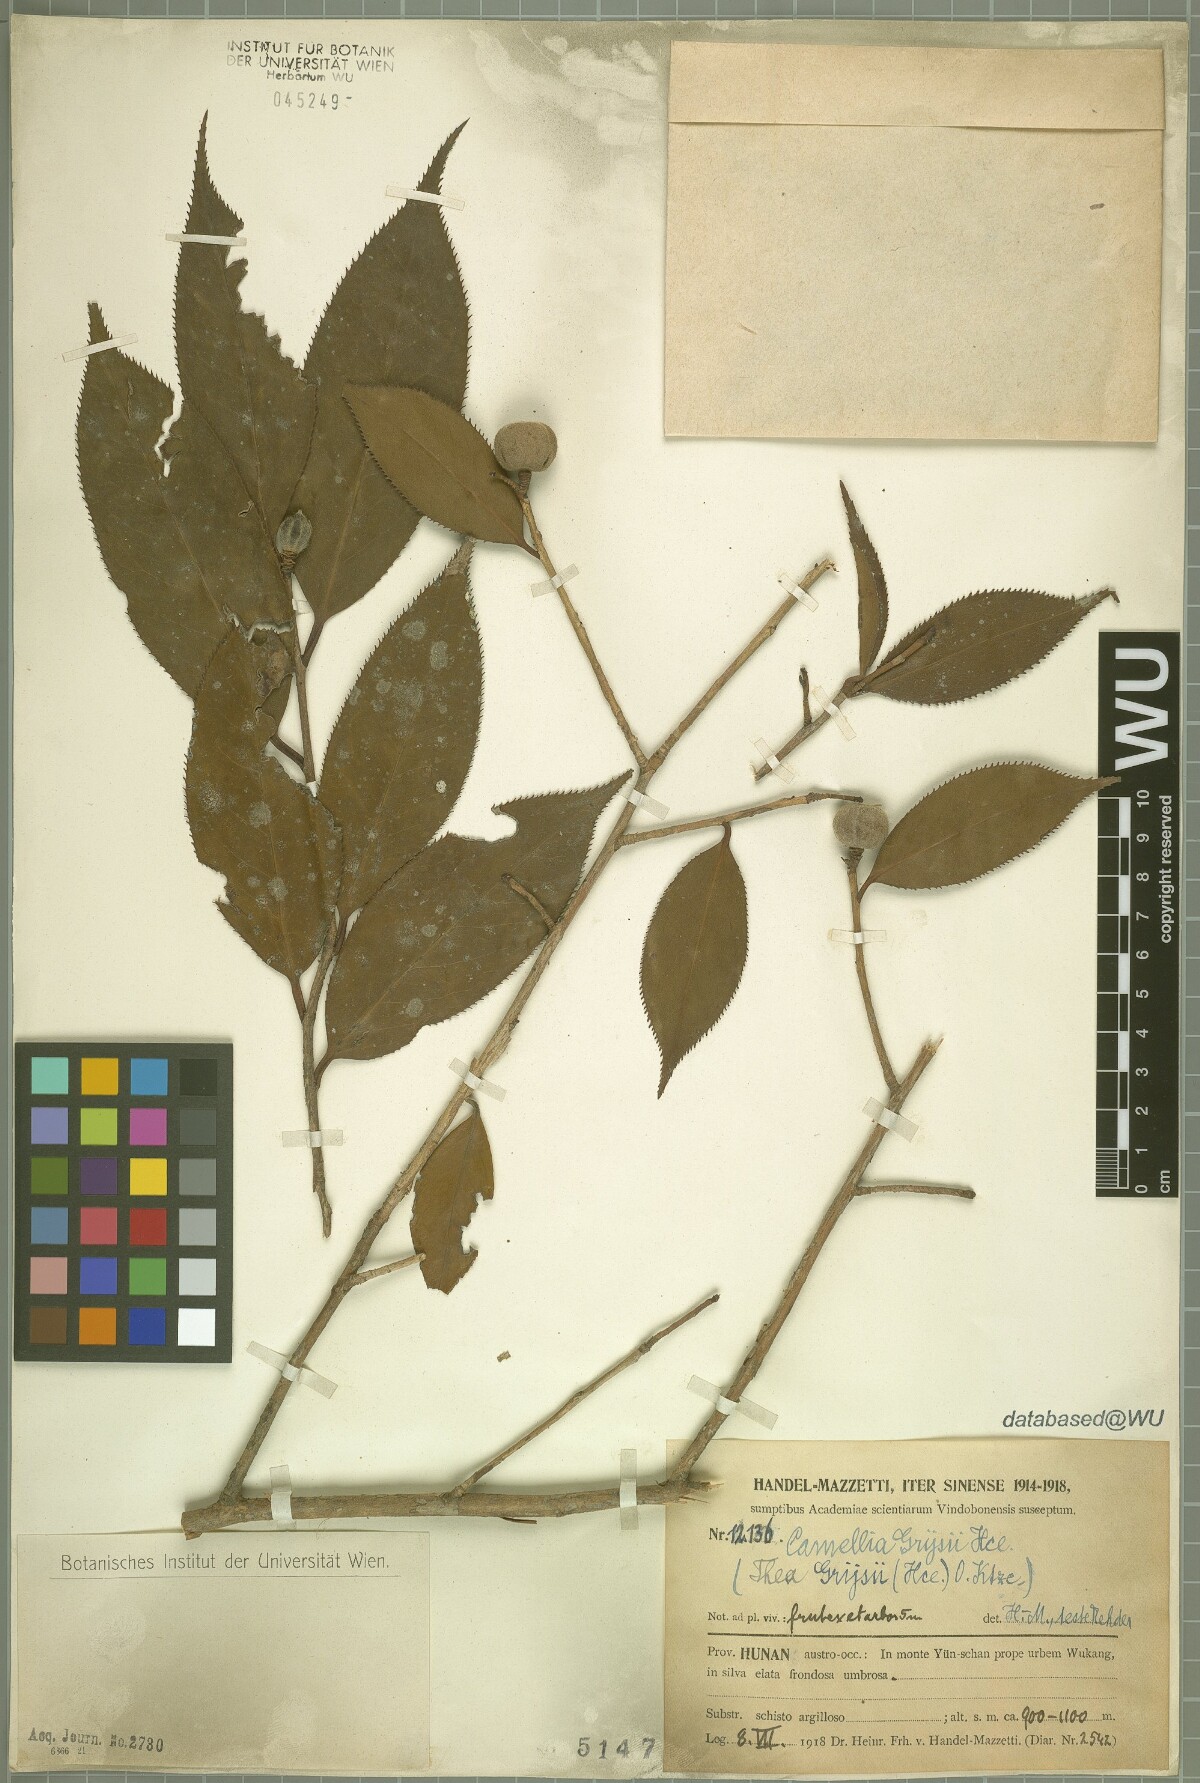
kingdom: Plantae
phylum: Tracheophyta
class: Magnoliopsida
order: Ericales
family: Theaceae
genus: Camellia
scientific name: Camellia grijsii
